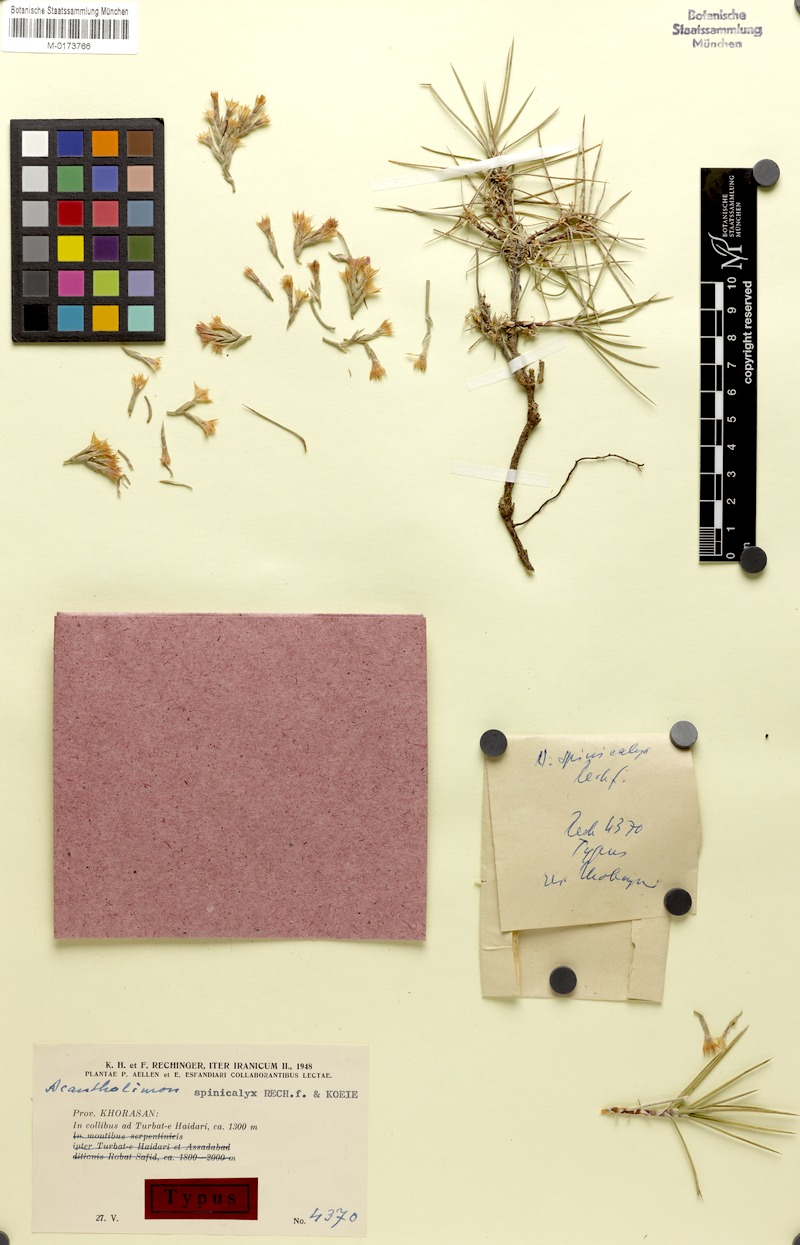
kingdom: Plantae
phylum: Tracheophyta
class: Magnoliopsida
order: Caryophyllales
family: Plumbaginaceae
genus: Acantholimon
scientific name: Acantholimon spinicalyx
